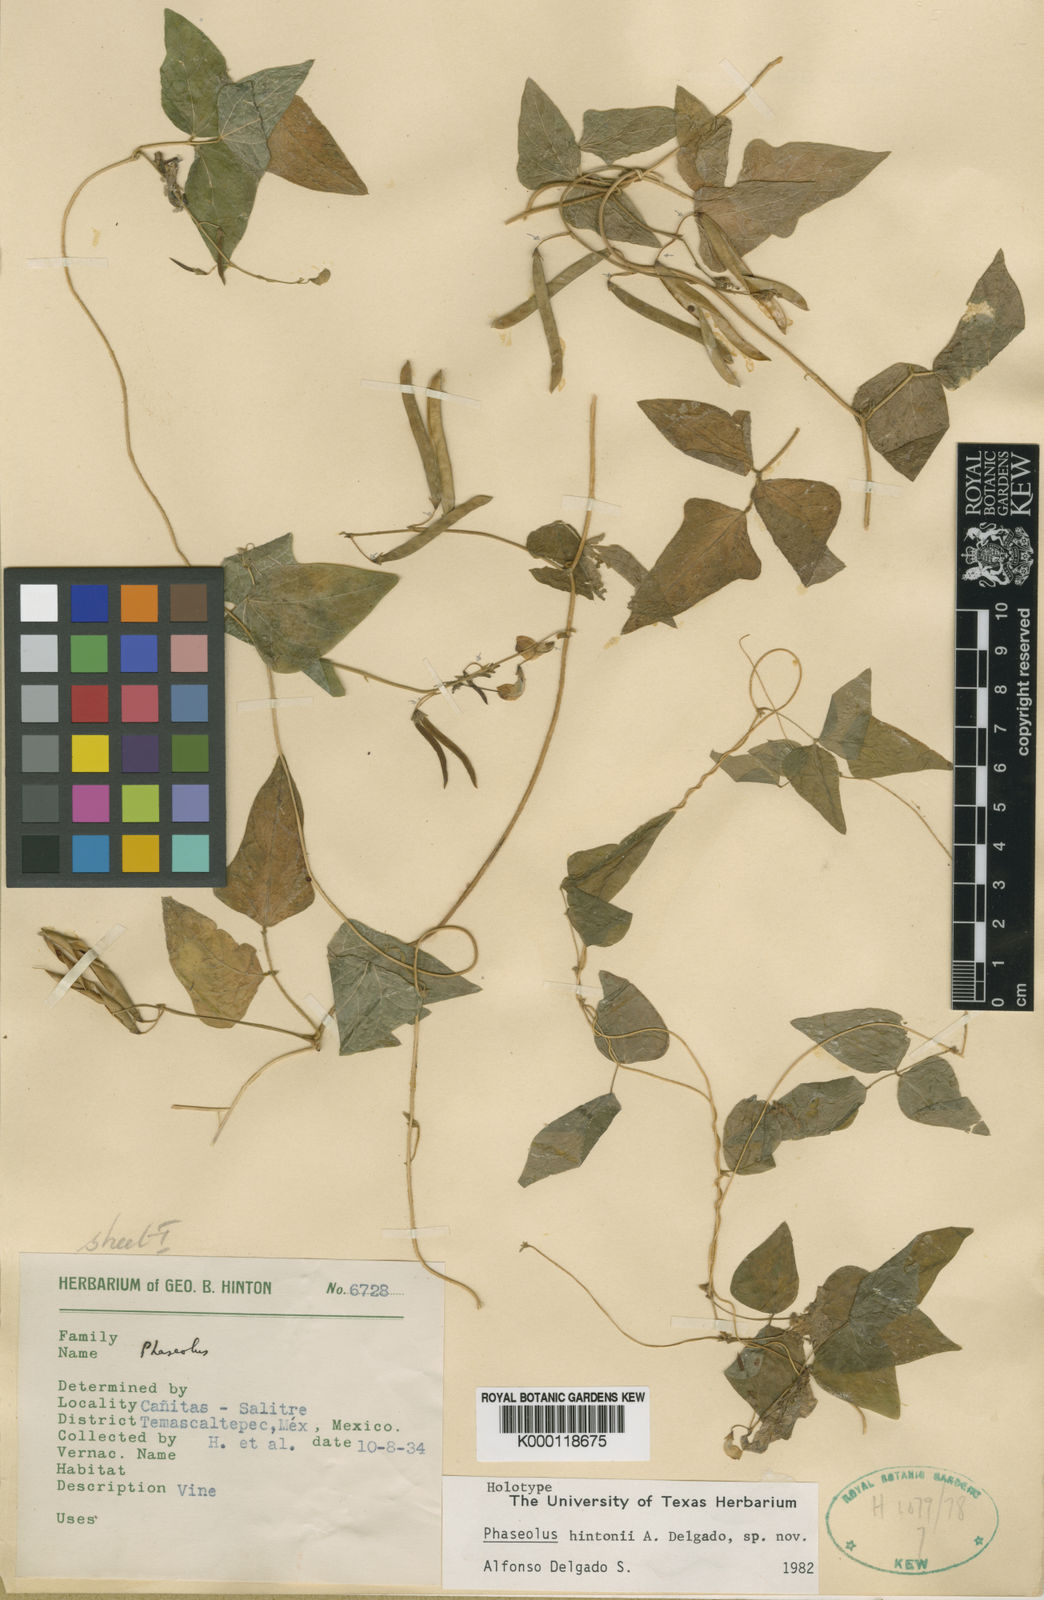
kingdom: Plantae
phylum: Tracheophyta
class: Magnoliopsida
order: Fabales
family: Fabaceae
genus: Phaseolus
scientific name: Phaseolus hintonii
